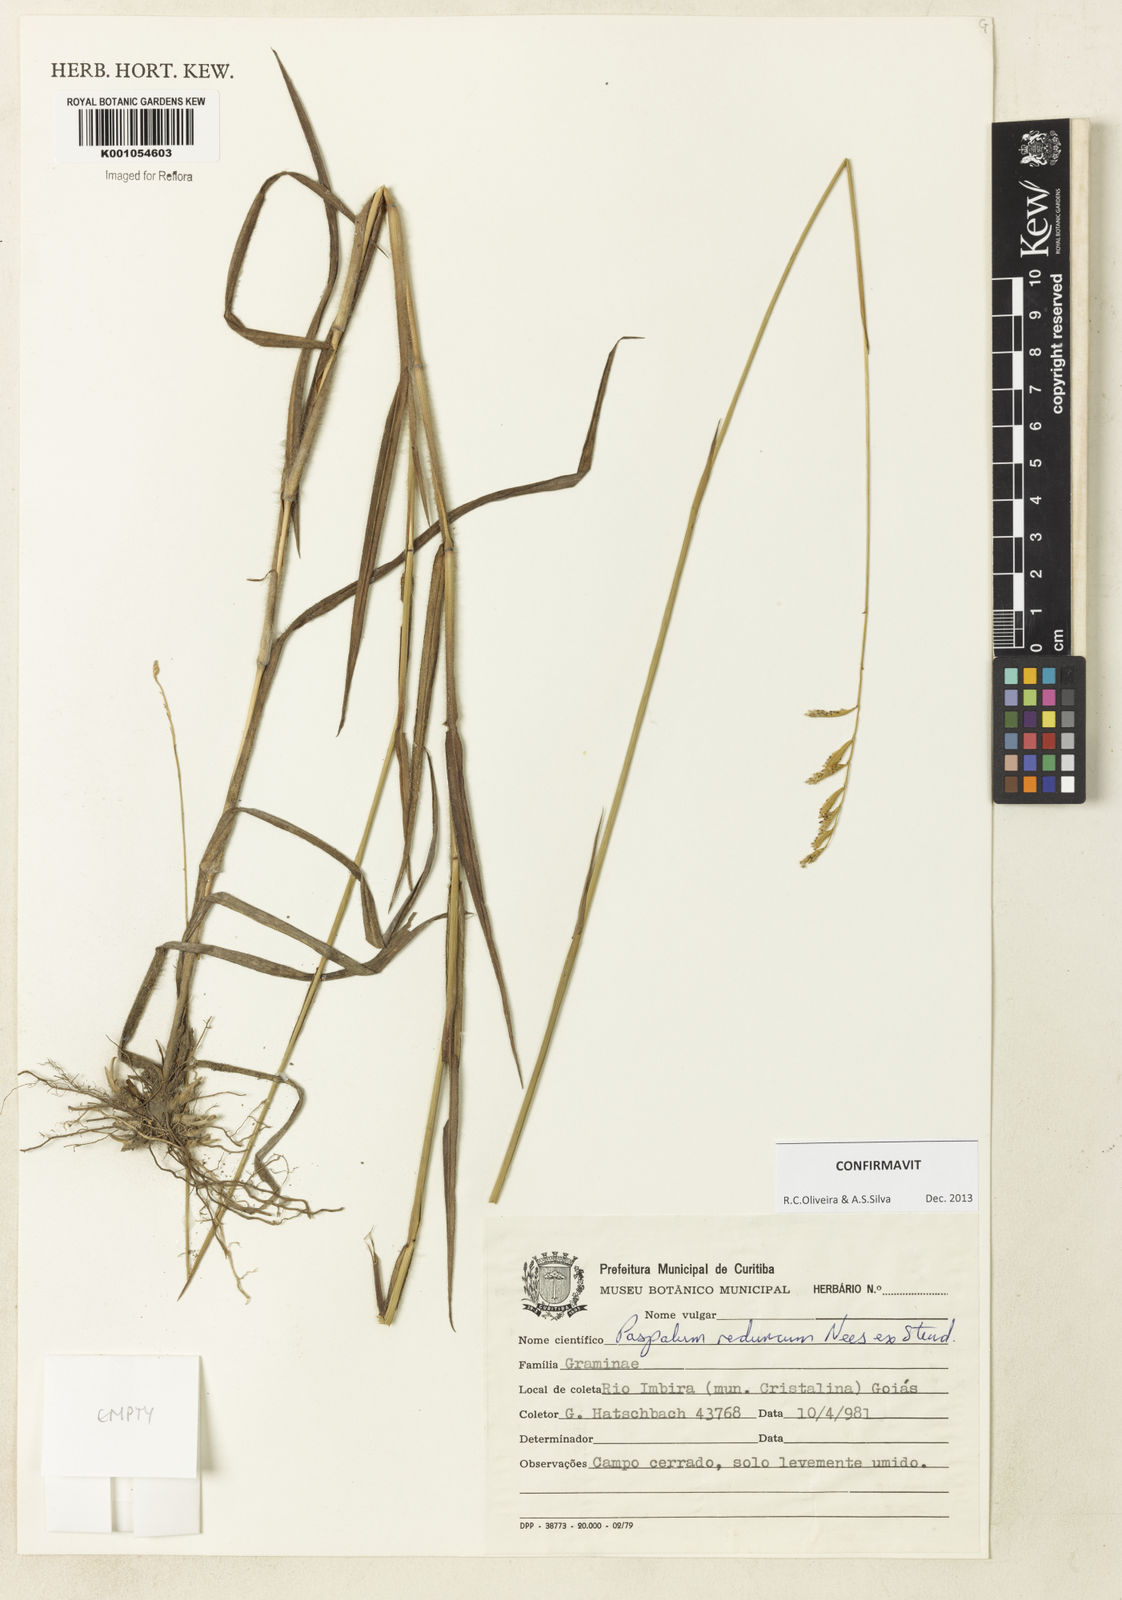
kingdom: Plantae
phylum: Tracheophyta
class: Liliopsida
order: Poales
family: Poaceae
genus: Paspalum
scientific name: Paspalum reduncum
